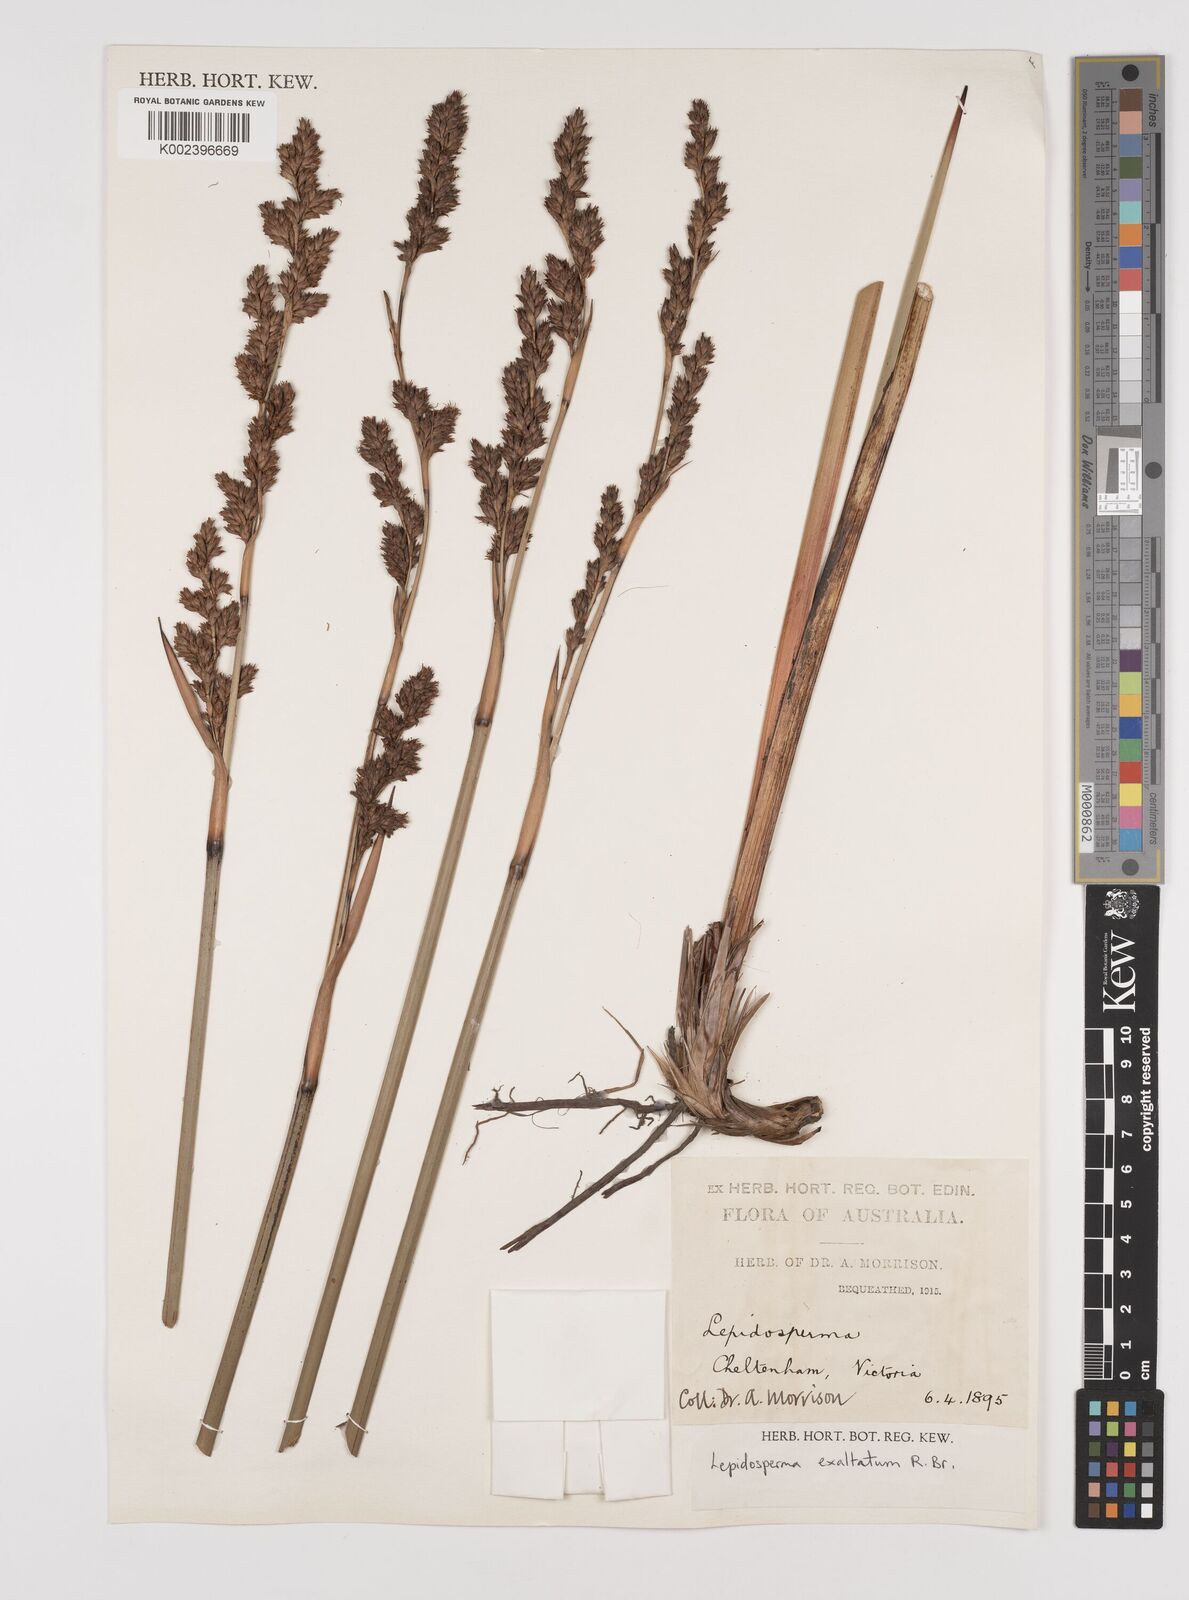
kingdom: Plantae
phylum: Tracheophyta
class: Liliopsida
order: Poales
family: Cyperaceae
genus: Lepidosperma
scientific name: Lepidosperma longitudinale
